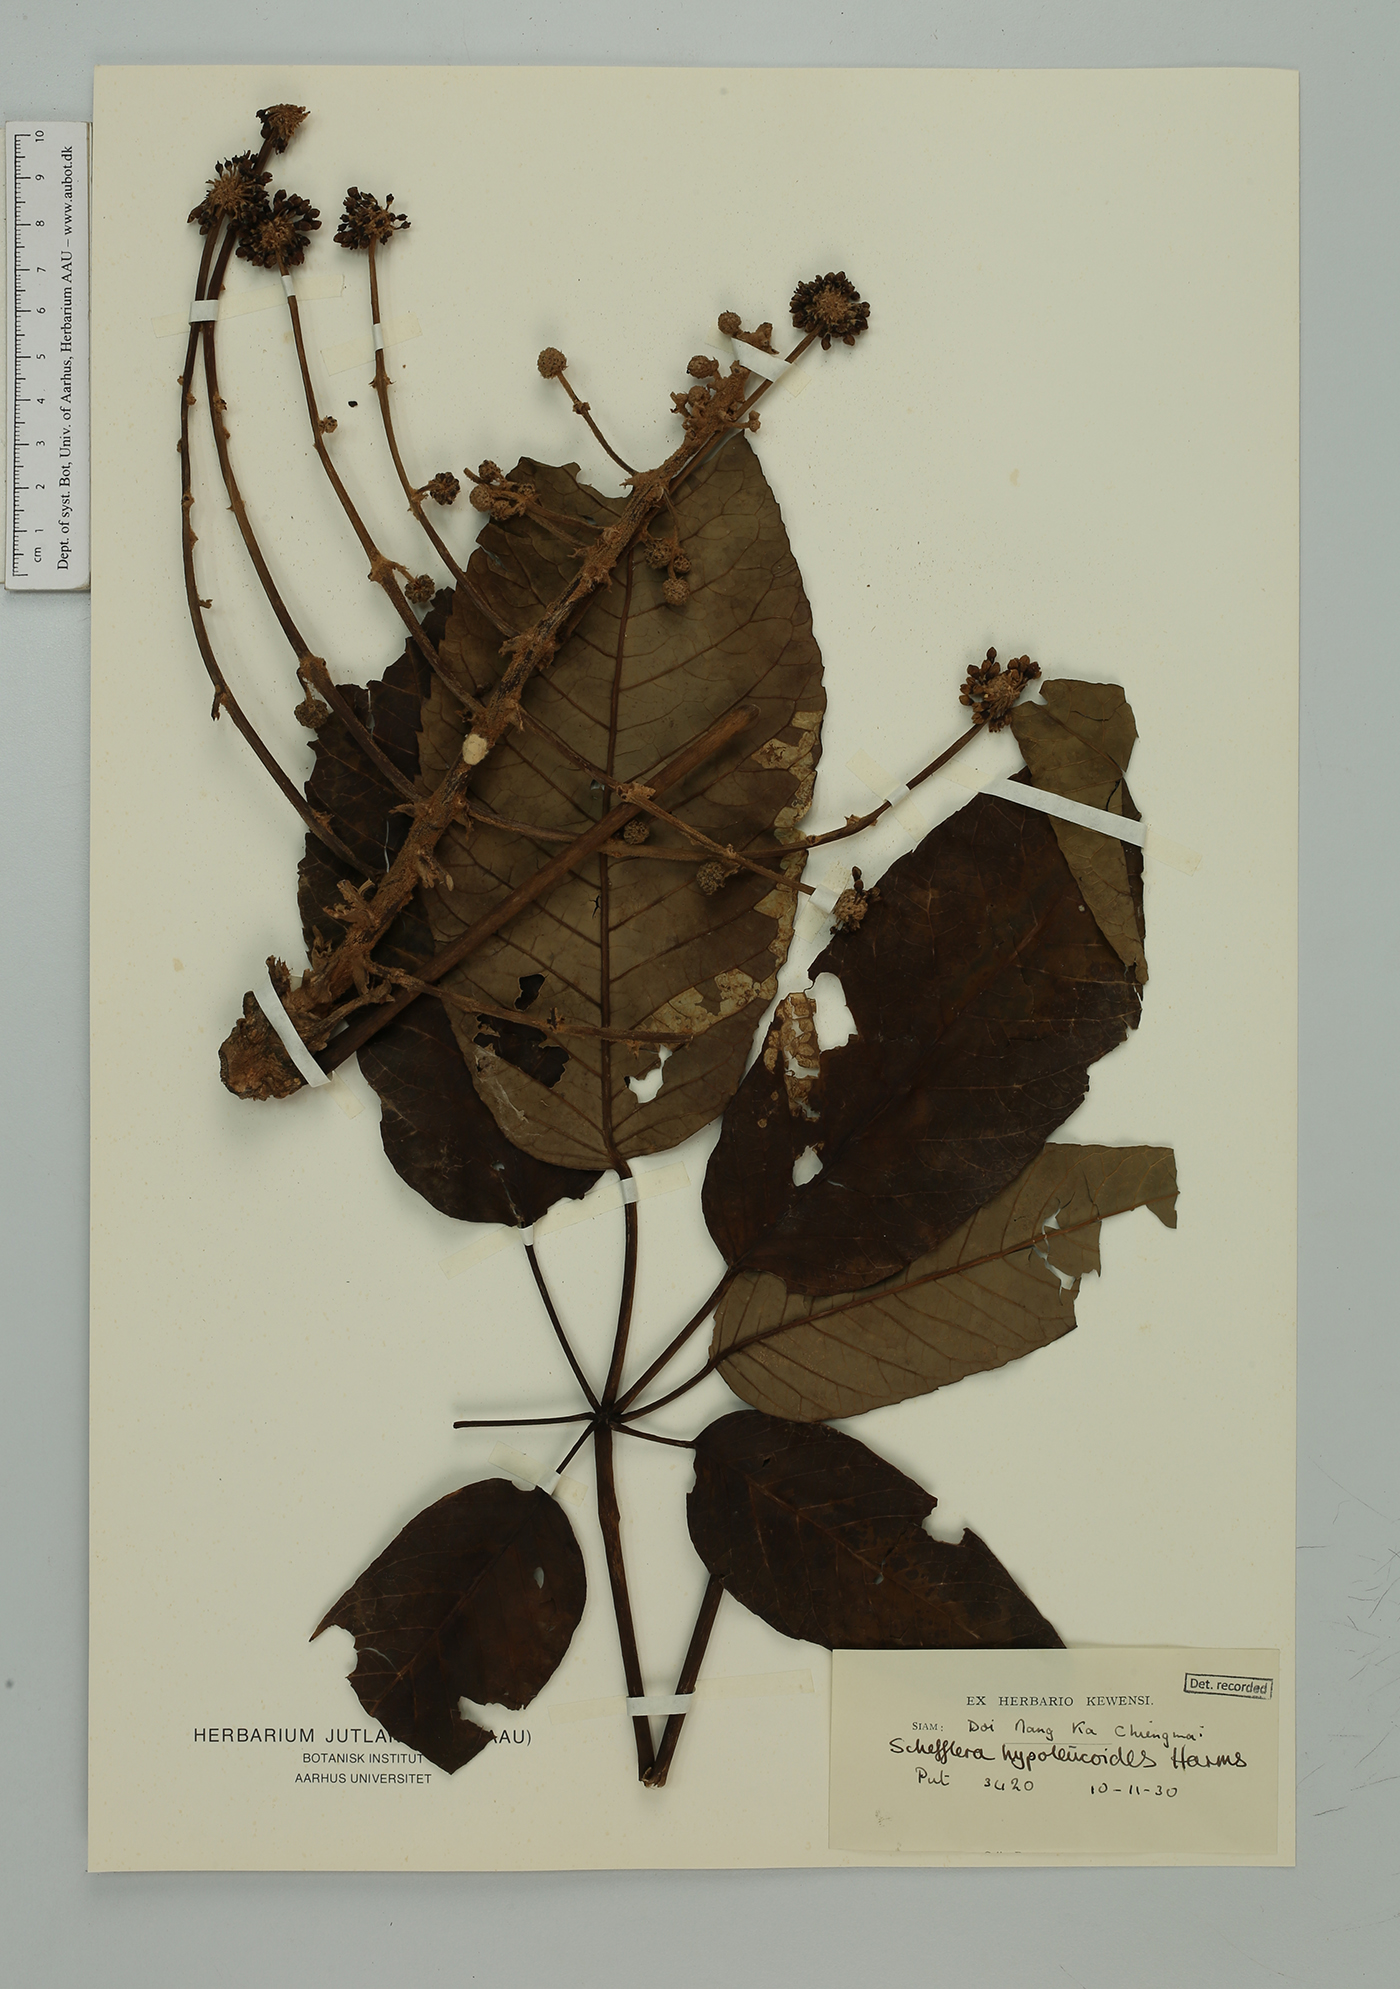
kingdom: Plantae
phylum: Tracheophyta
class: Magnoliopsida
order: Apiales
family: Araliaceae
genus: Heptapleurum
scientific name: Heptapleurum hypoleucoides
